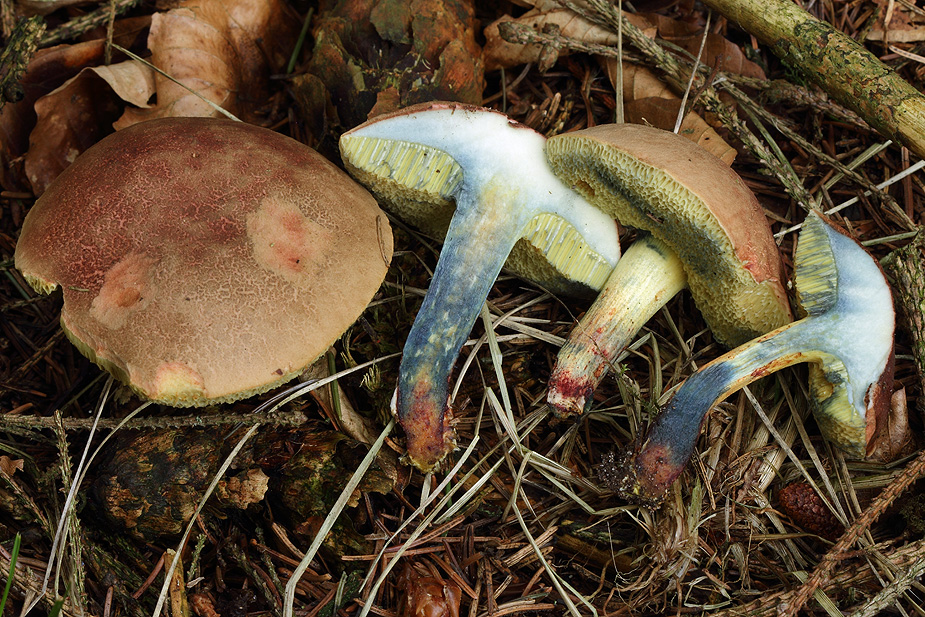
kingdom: Fungi
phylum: Basidiomycota
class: Agaricomycetes
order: Boletales
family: Boletaceae
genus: Xerocomellus
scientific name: Xerocomellus cisalpinus
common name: finsprukken rørhat
